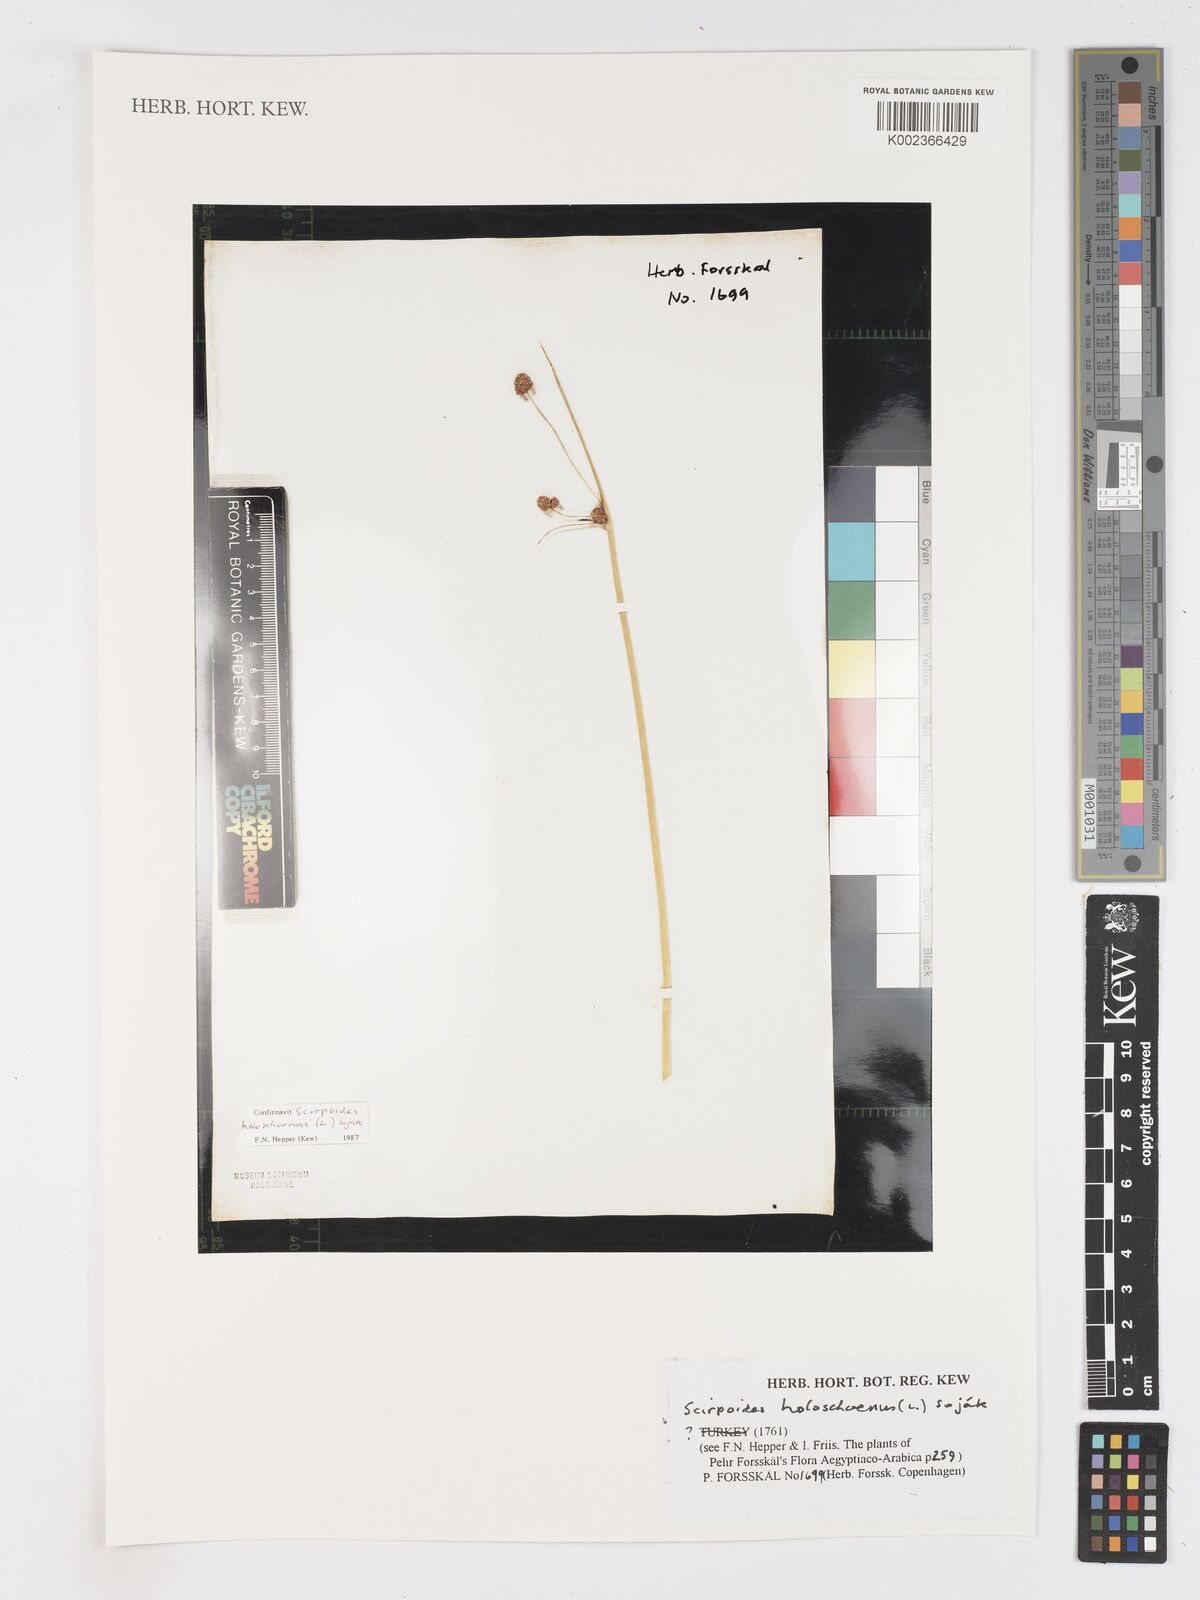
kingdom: Plantae
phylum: Tracheophyta
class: Liliopsida
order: Poales
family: Cyperaceae
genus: Scirpoides
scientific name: Scirpoides holoschoenus
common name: Round-headed club-rush
